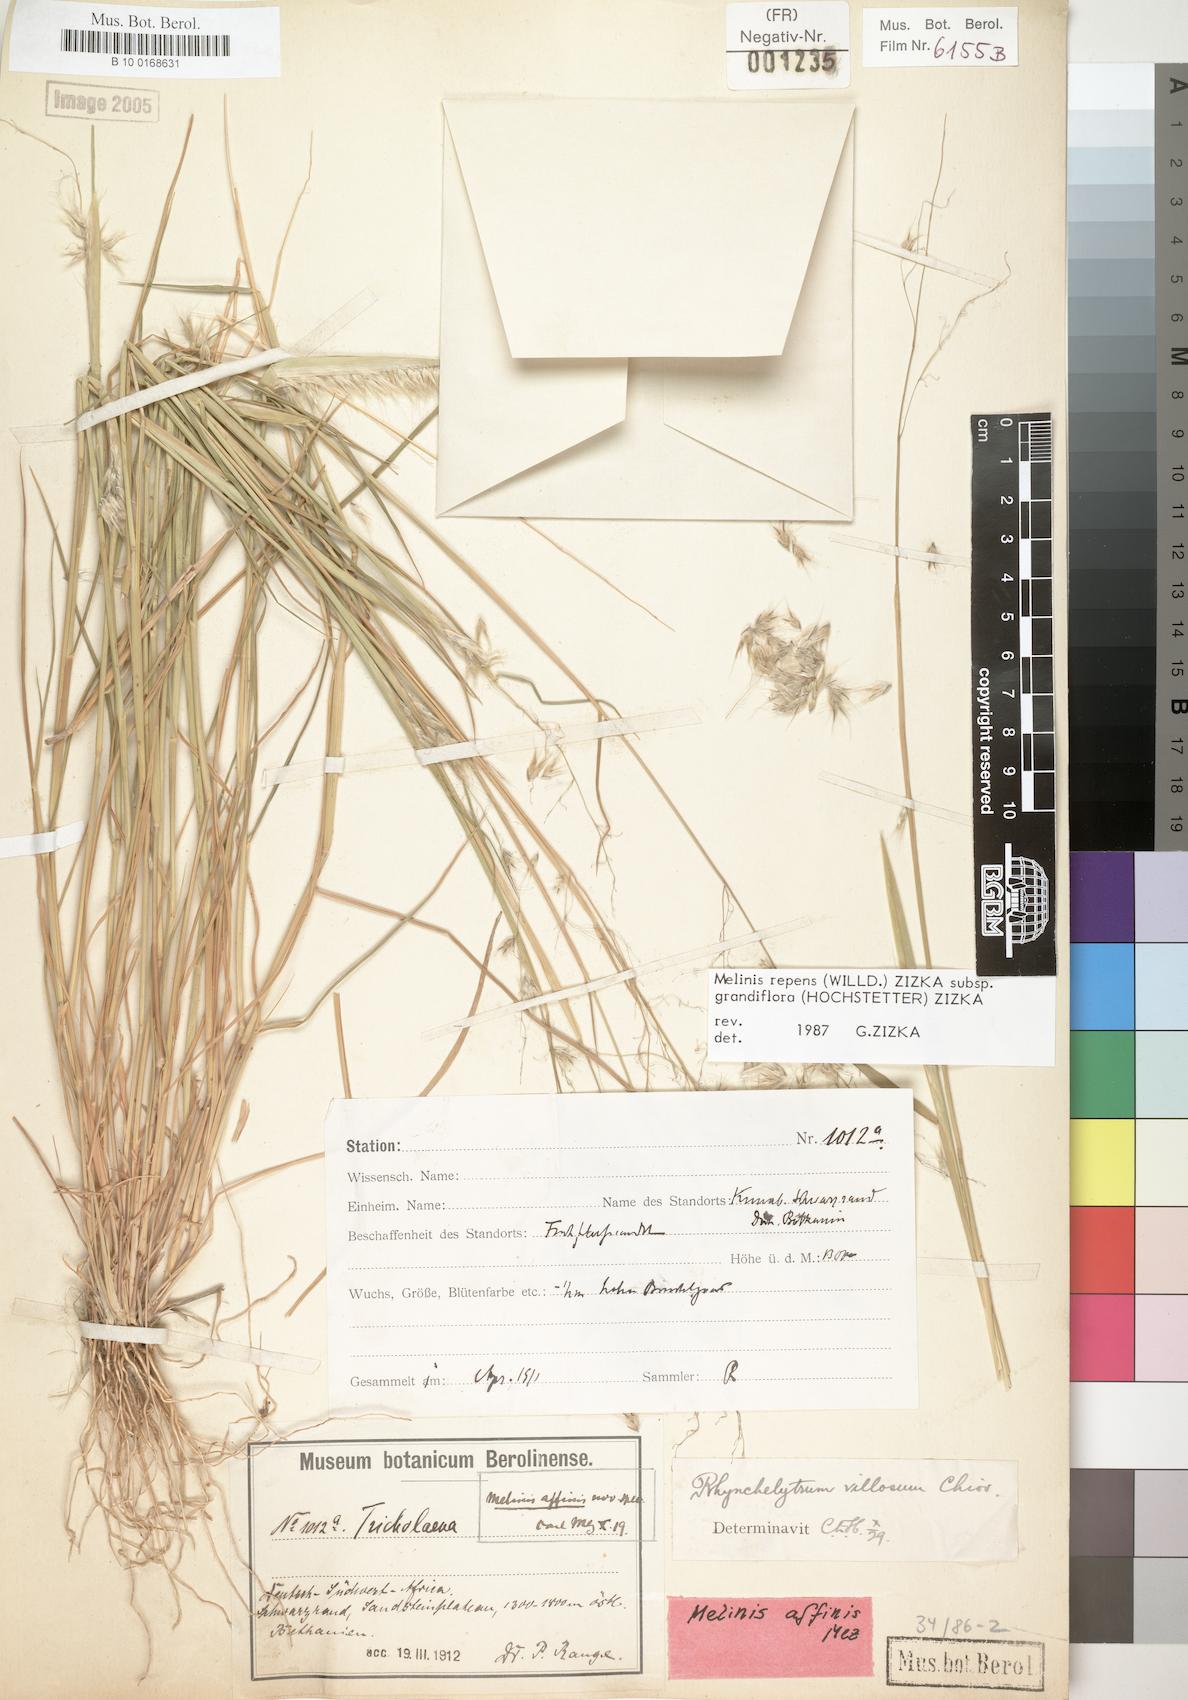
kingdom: Plantae
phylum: Tracheophyta
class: Liliopsida
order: Poales
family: Poaceae
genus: Melinis
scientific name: Melinis repens
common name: Rose natal grass
